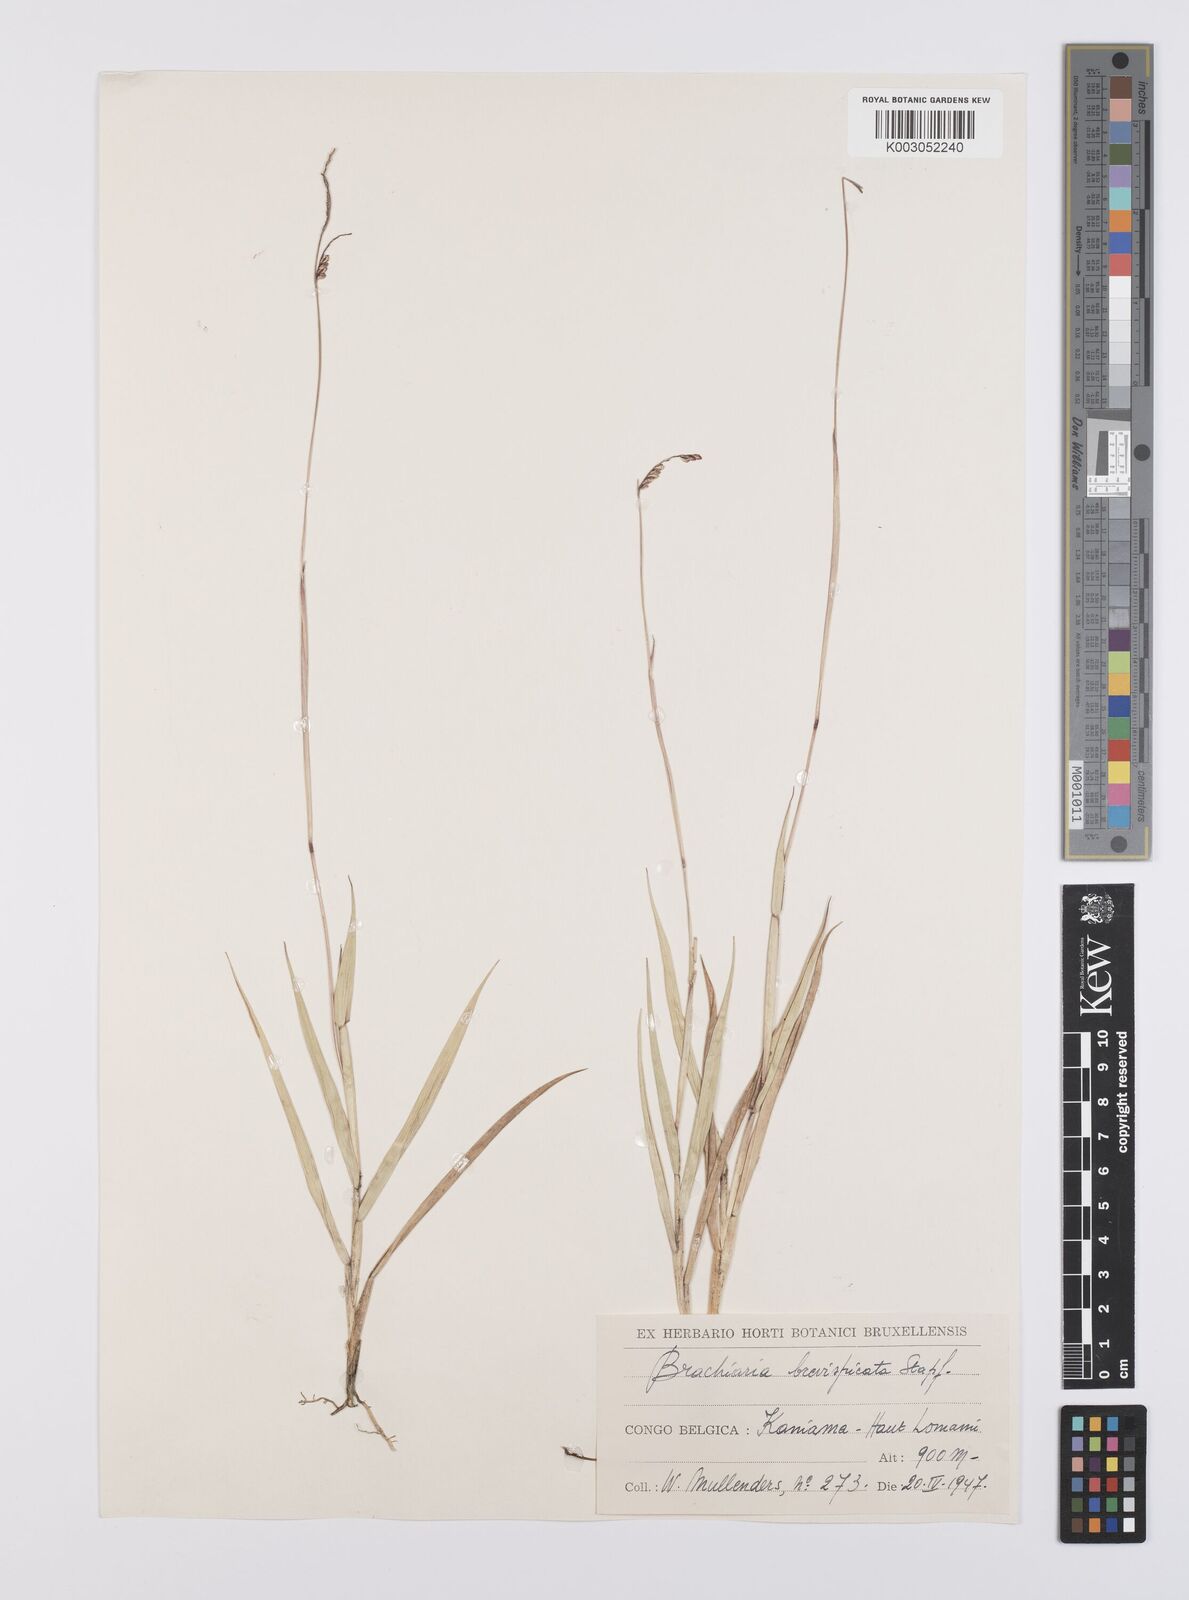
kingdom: Plantae
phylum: Tracheophyta
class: Liliopsida
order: Poales
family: Poaceae
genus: Urochloa
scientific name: Urochloa brevispicata
